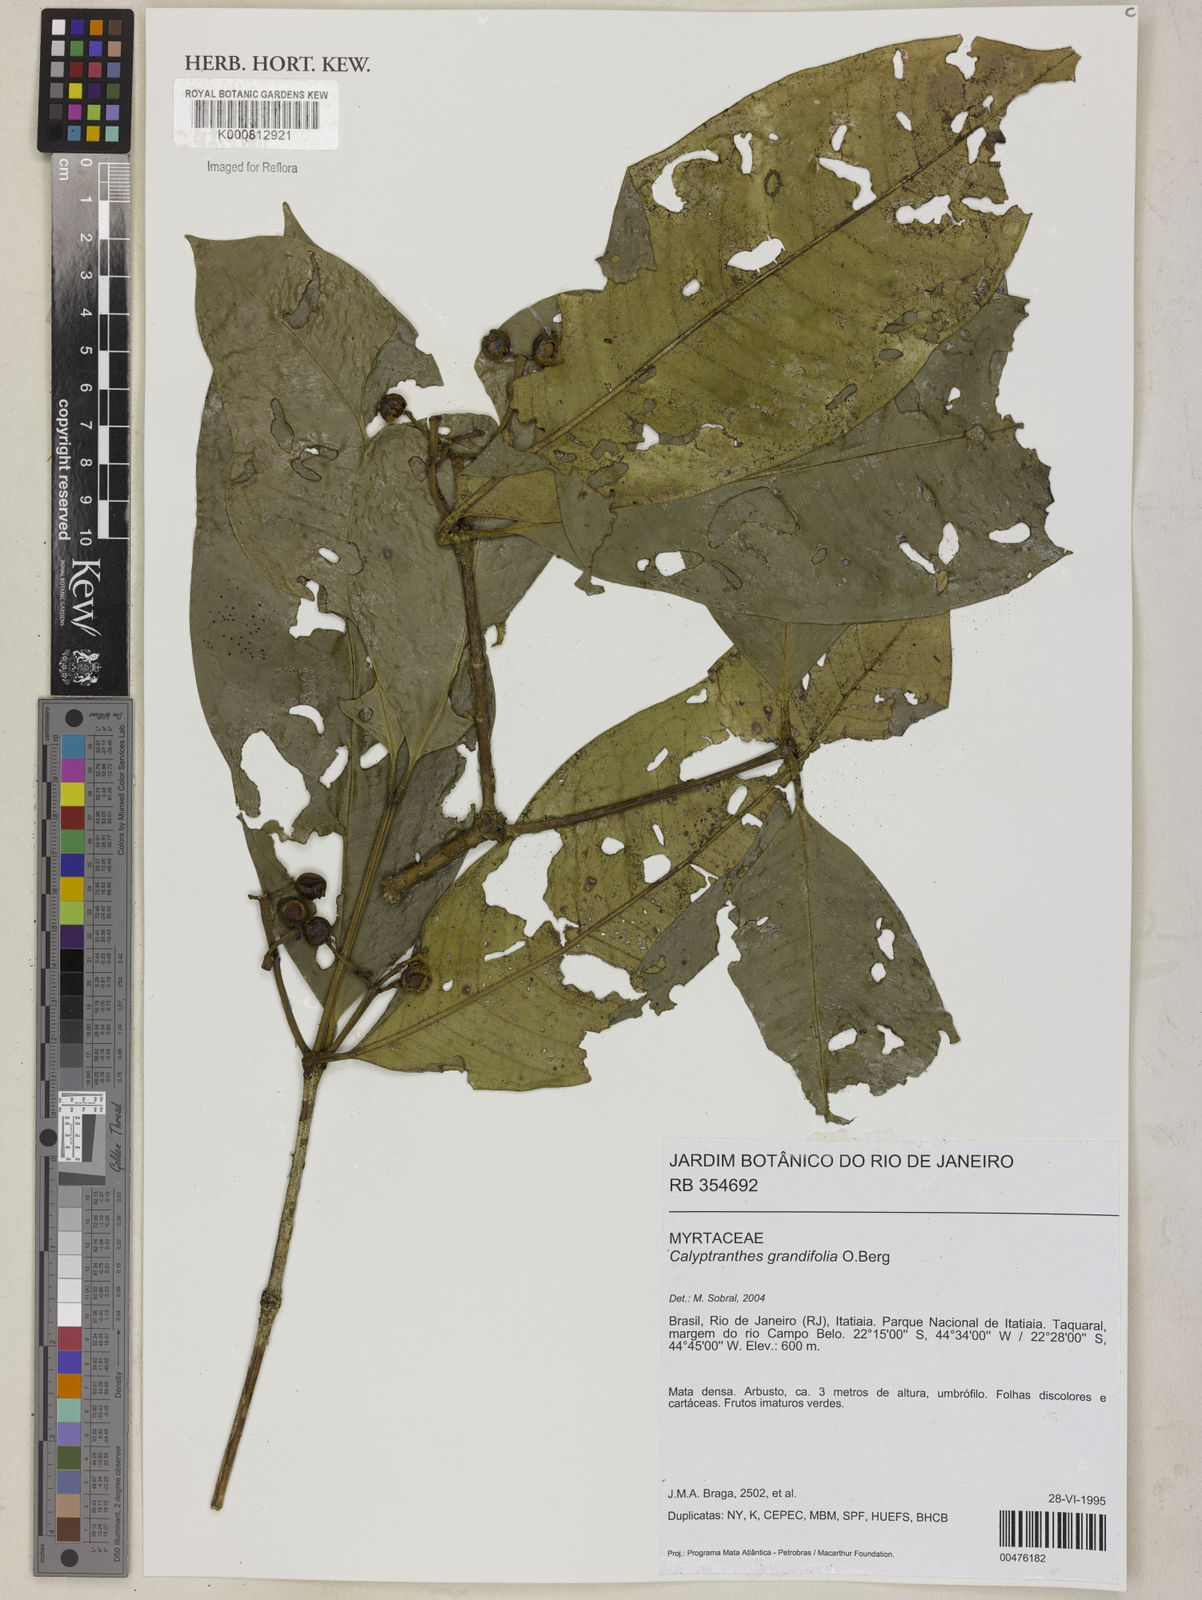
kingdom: Plantae
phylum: Tracheophyta
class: Magnoliopsida
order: Myrtales
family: Myrtaceae
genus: Calyptranthes
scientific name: Calyptranthes grandifolia
